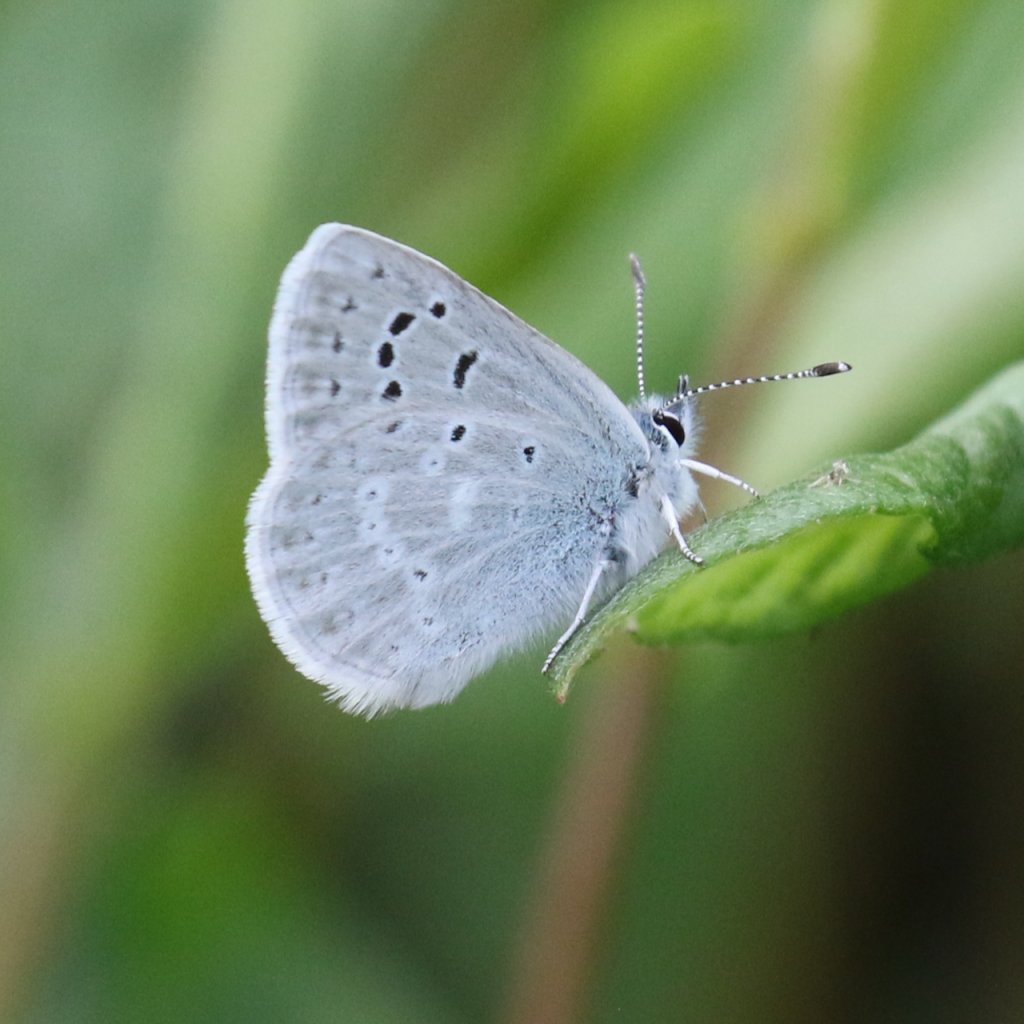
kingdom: Animalia
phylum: Arthropoda
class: Insecta
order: Lepidoptera
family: Lycaenidae
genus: Icaricia
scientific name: Icaricia icarioides
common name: Boisduval's Blue
